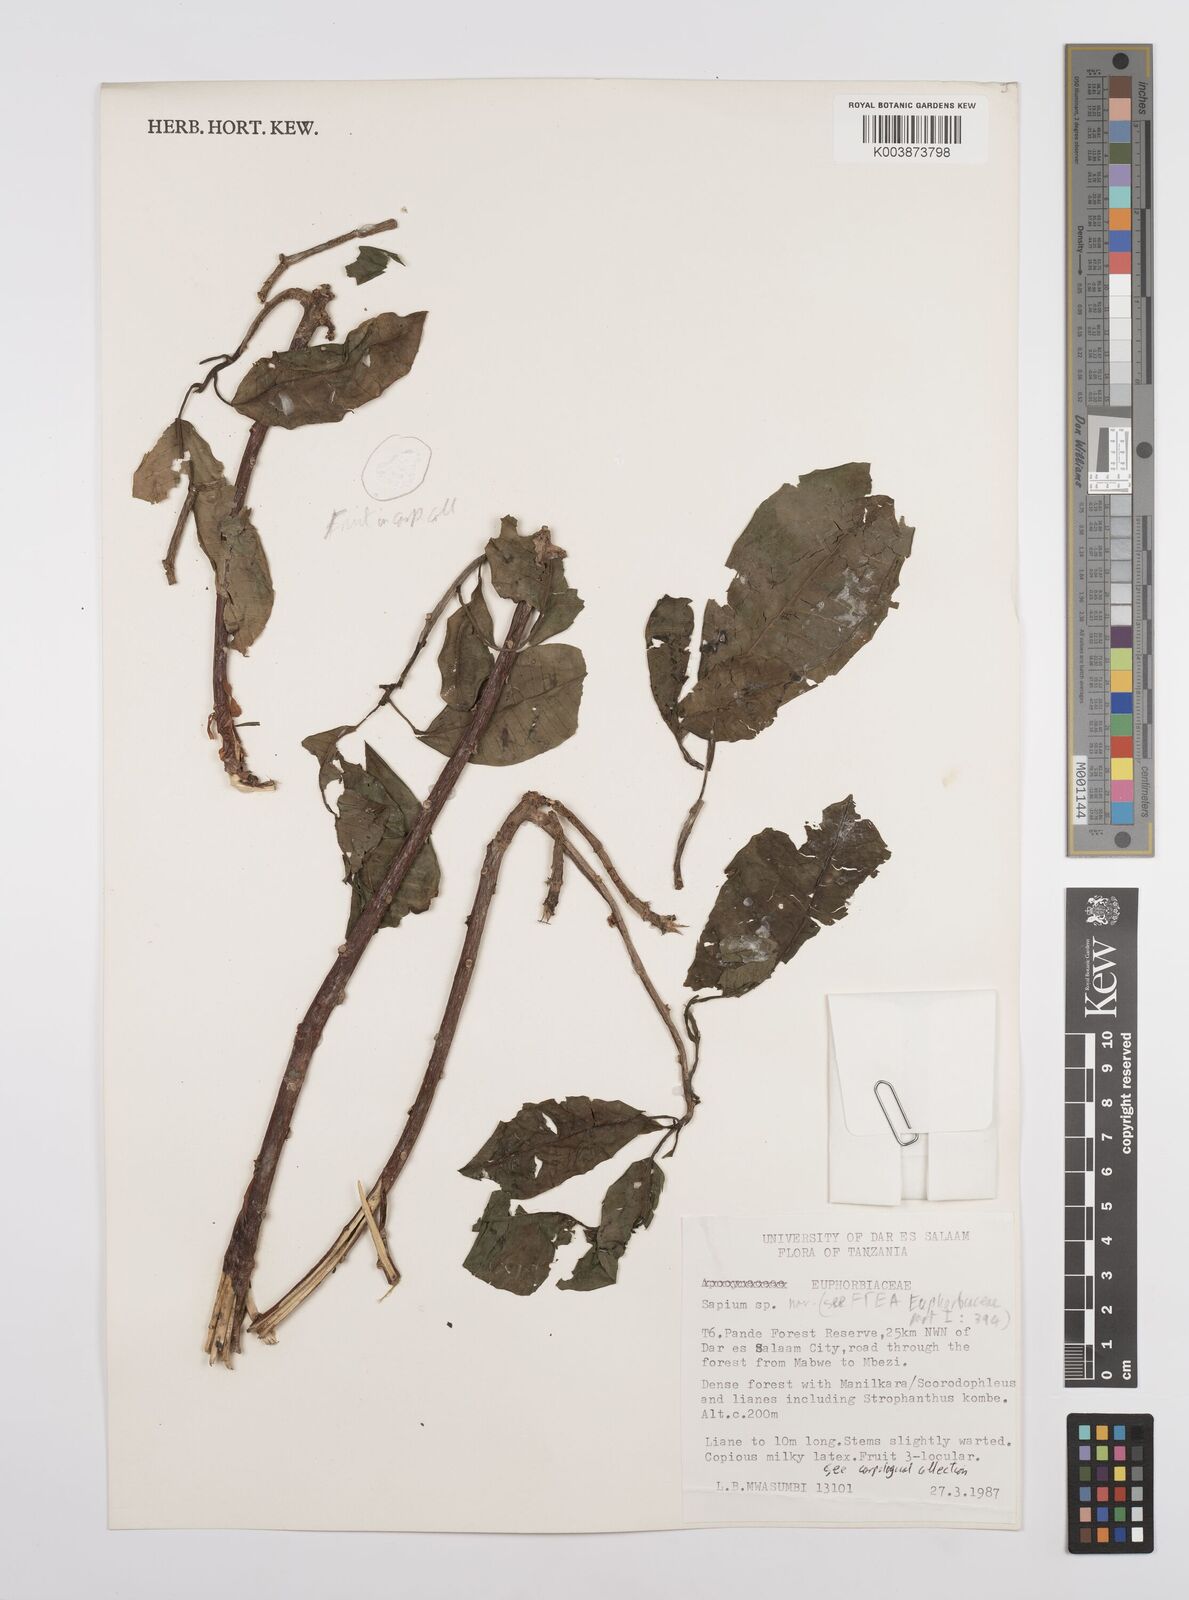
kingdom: Plantae
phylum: Tracheophyta
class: Magnoliopsida
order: Malpighiales
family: Euphorbiaceae
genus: Sapium
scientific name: Sapium
